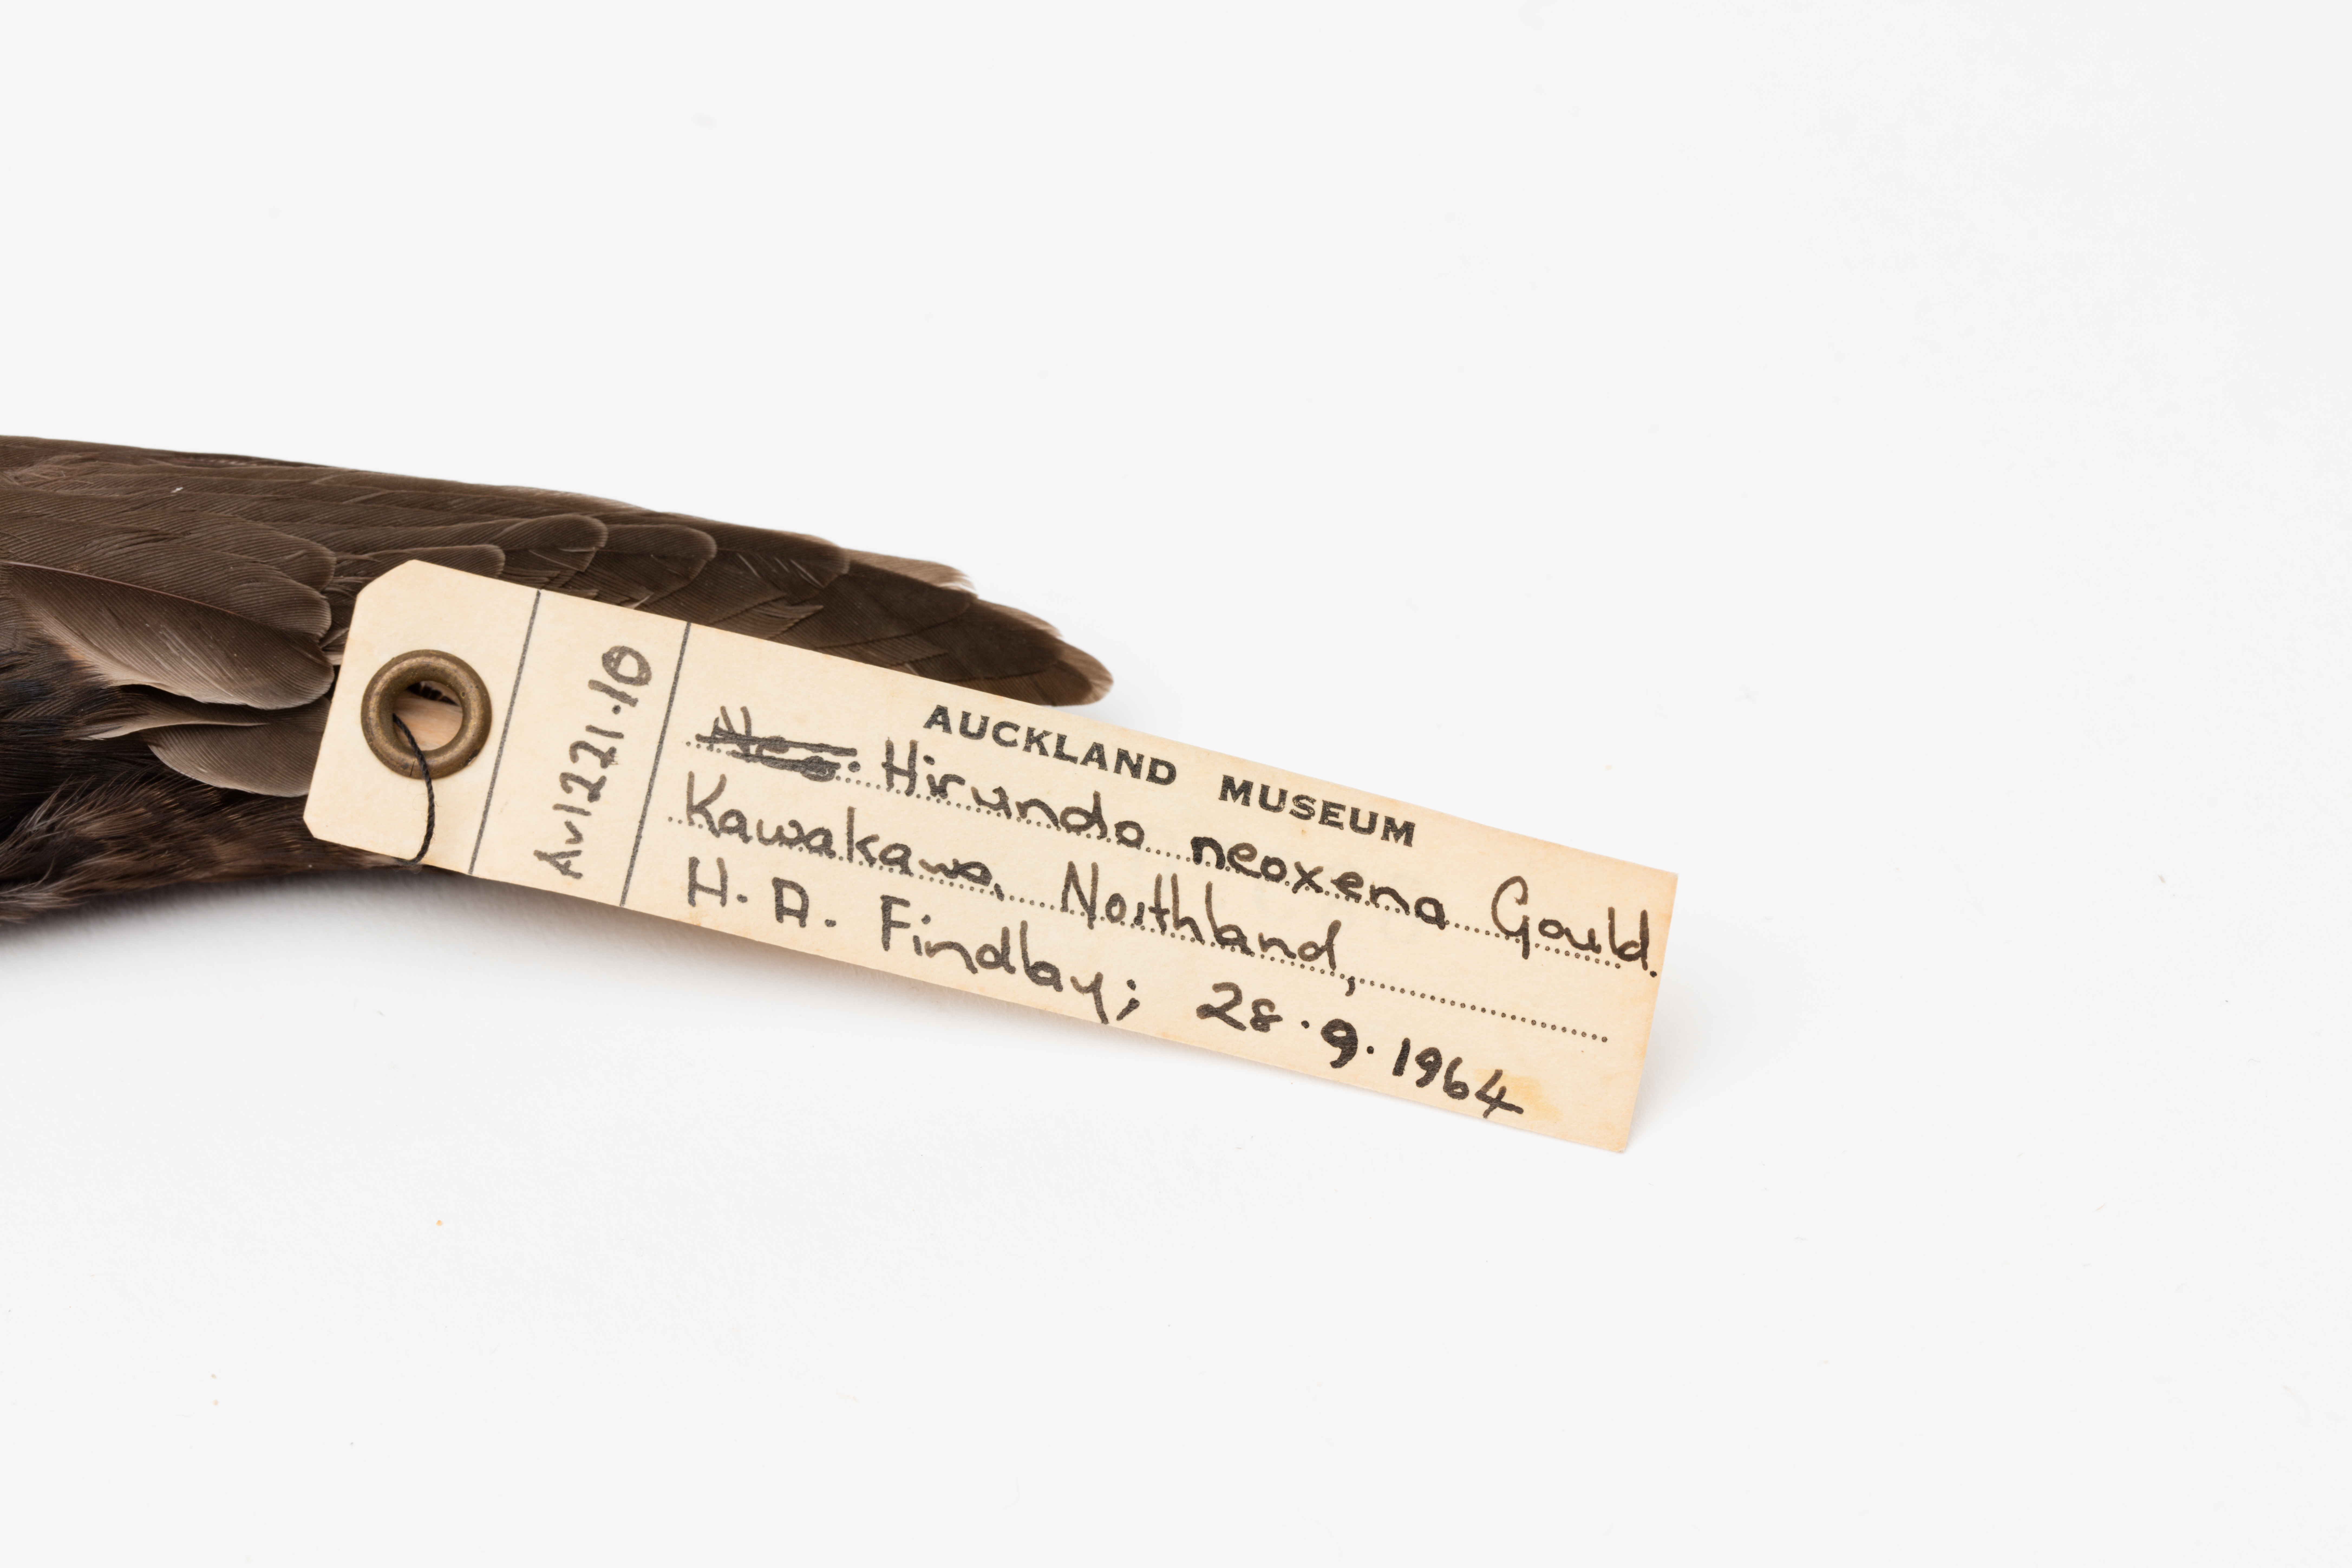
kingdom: Animalia
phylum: Chordata
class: Aves
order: Passeriformes
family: Hirundinidae
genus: Hirundo
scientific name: Hirundo neoxena
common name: Welcome swallow
